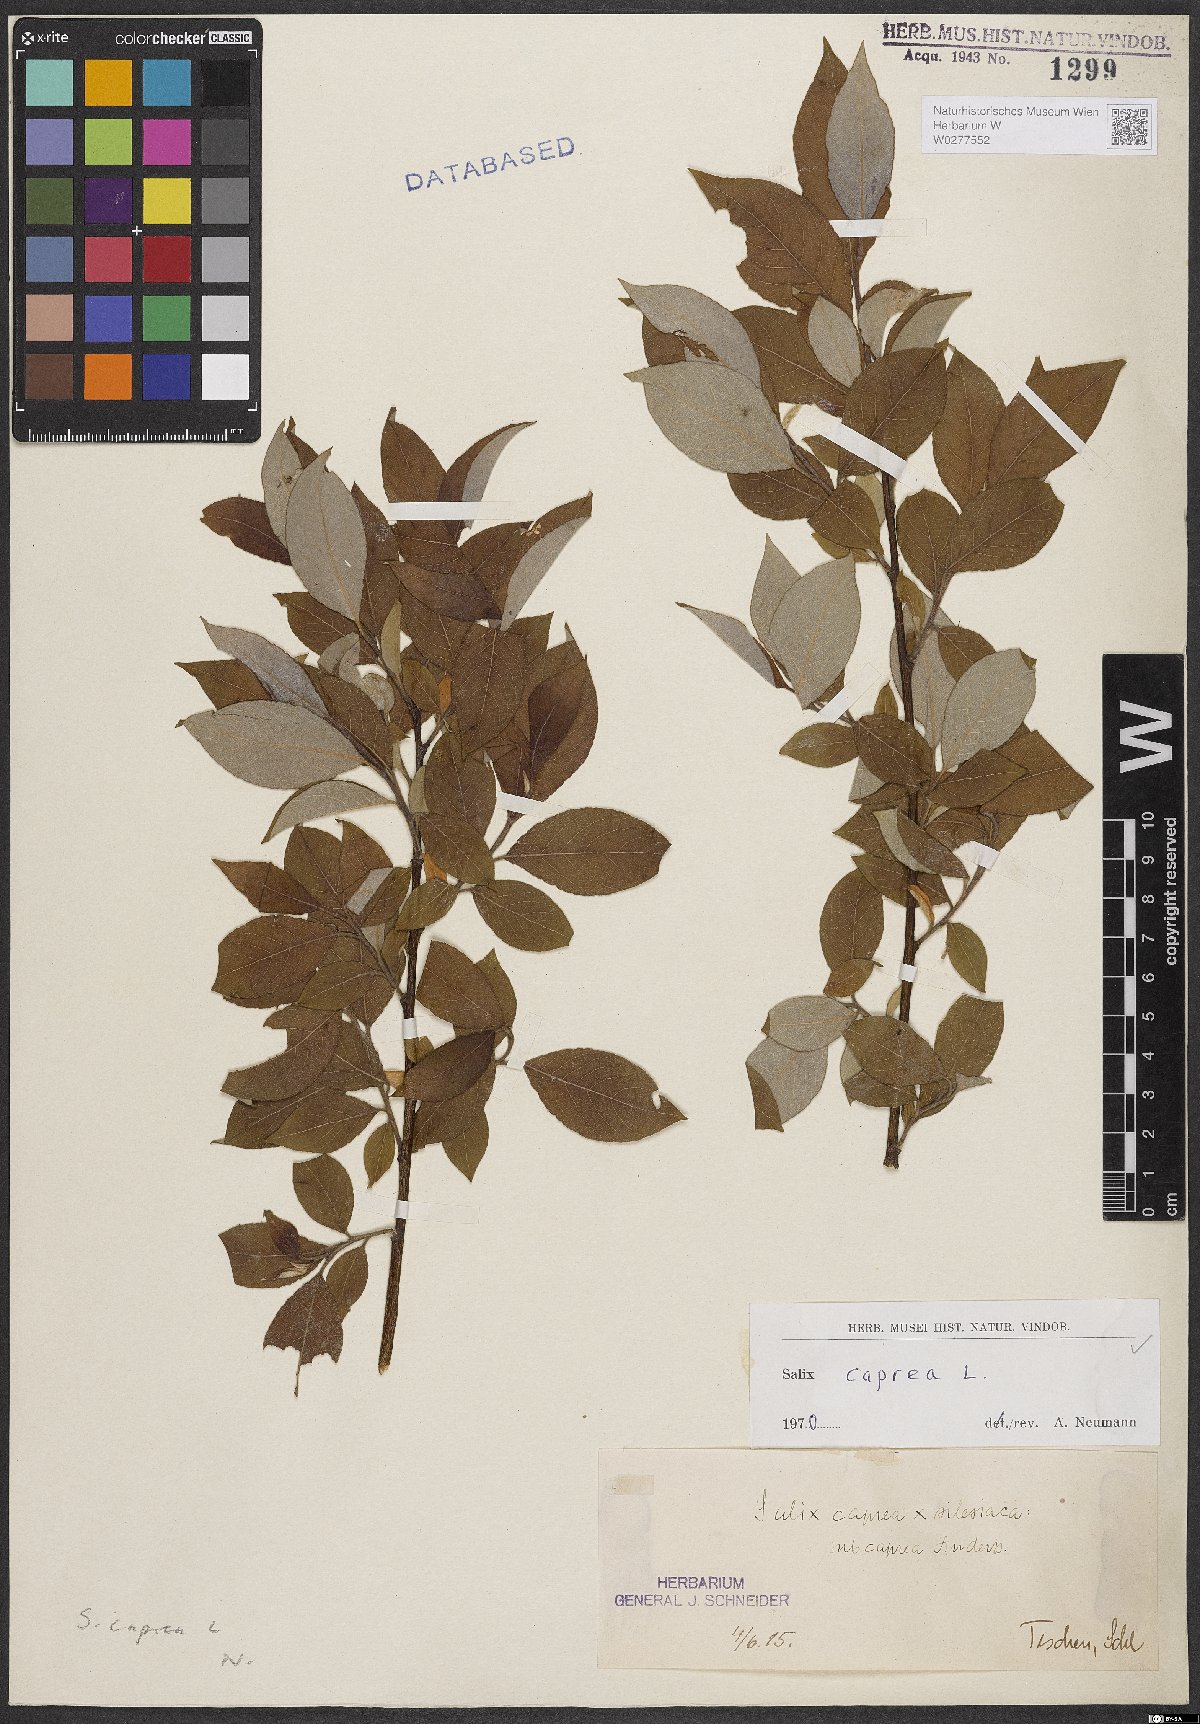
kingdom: Plantae
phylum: Tracheophyta
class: Magnoliopsida
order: Malpighiales
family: Salicaceae
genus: Salix
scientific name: Salix caprea
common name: Goat willow
